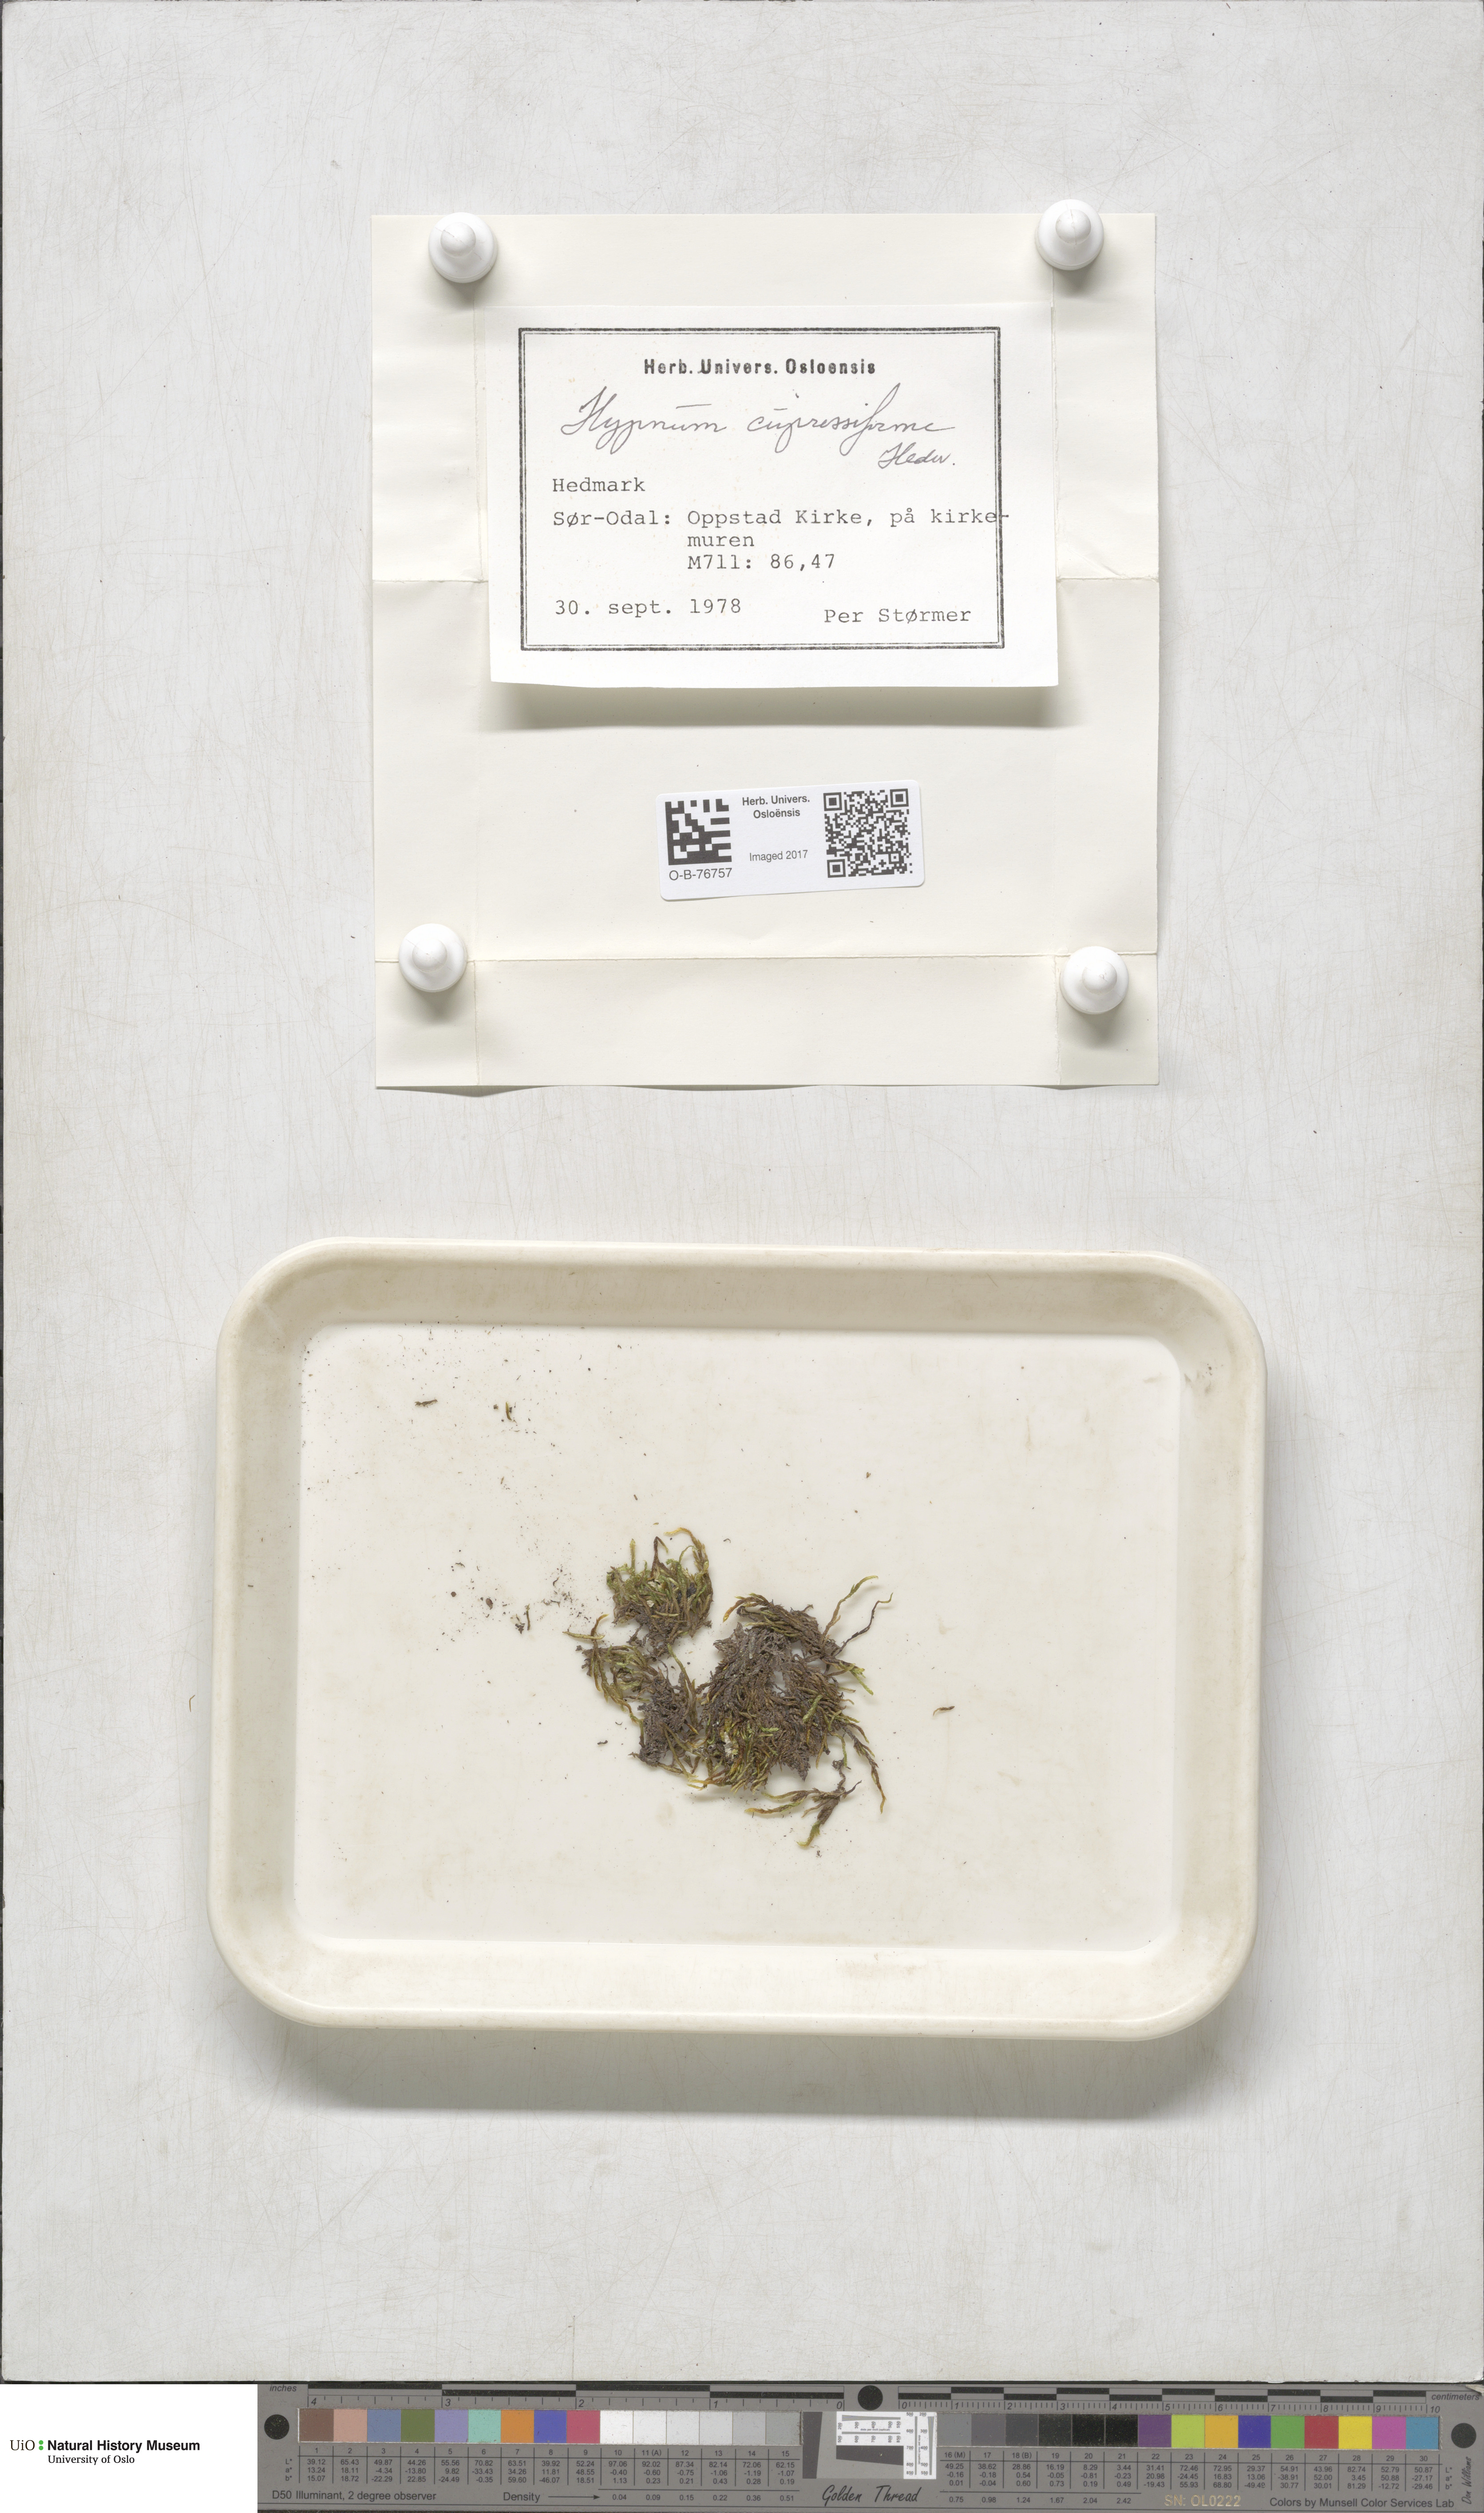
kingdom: Plantae
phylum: Bryophyta
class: Bryopsida
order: Hypnales
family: Hypnaceae
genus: Hypnum
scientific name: Hypnum cupressiforme
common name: Cypress-leaved plait-moss
